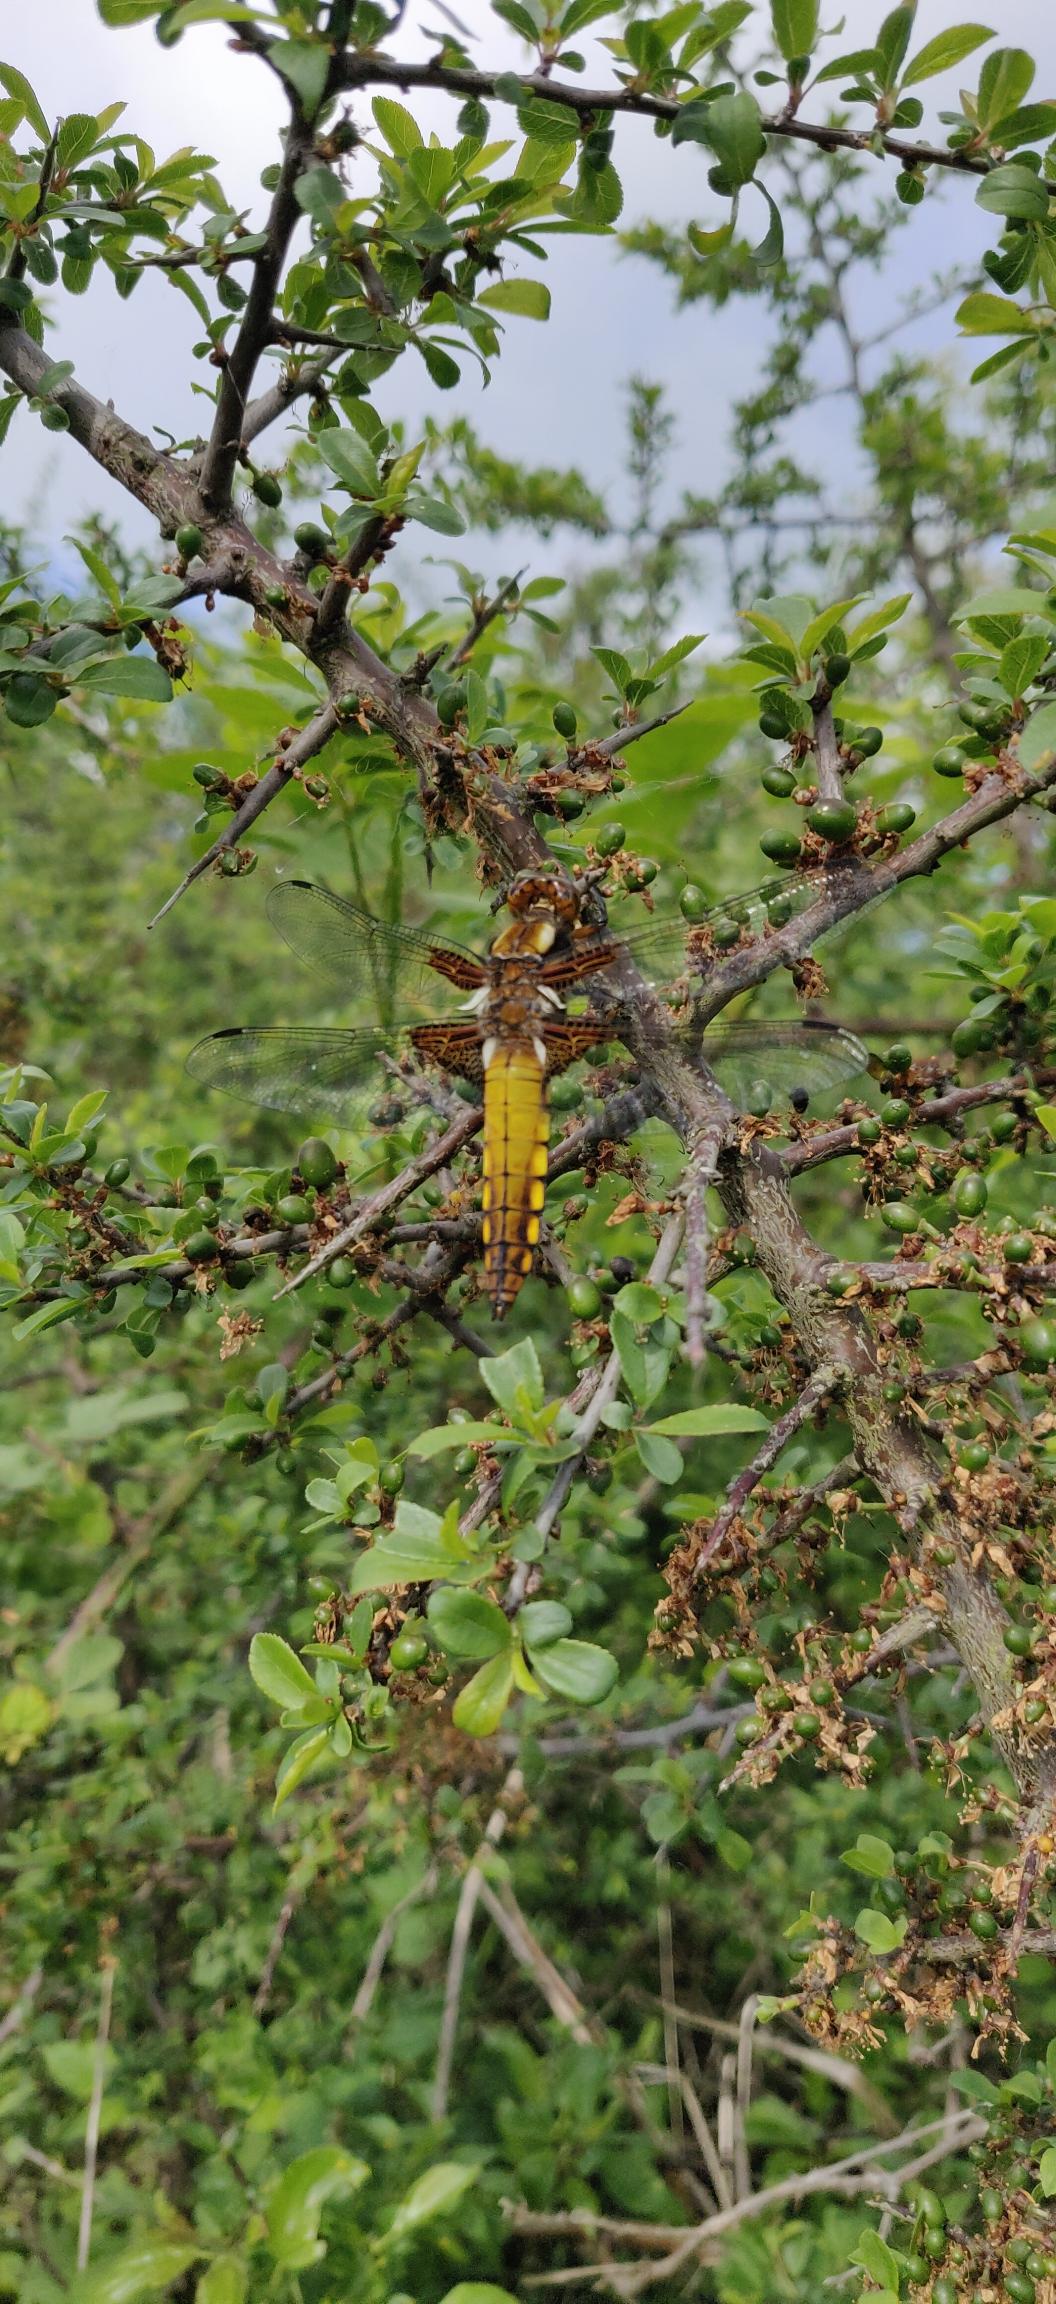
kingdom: Animalia
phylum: Arthropoda
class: Insecta
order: Odonata
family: Libellulidae
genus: Libellula
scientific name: Libellula depressa
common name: Blå libel
